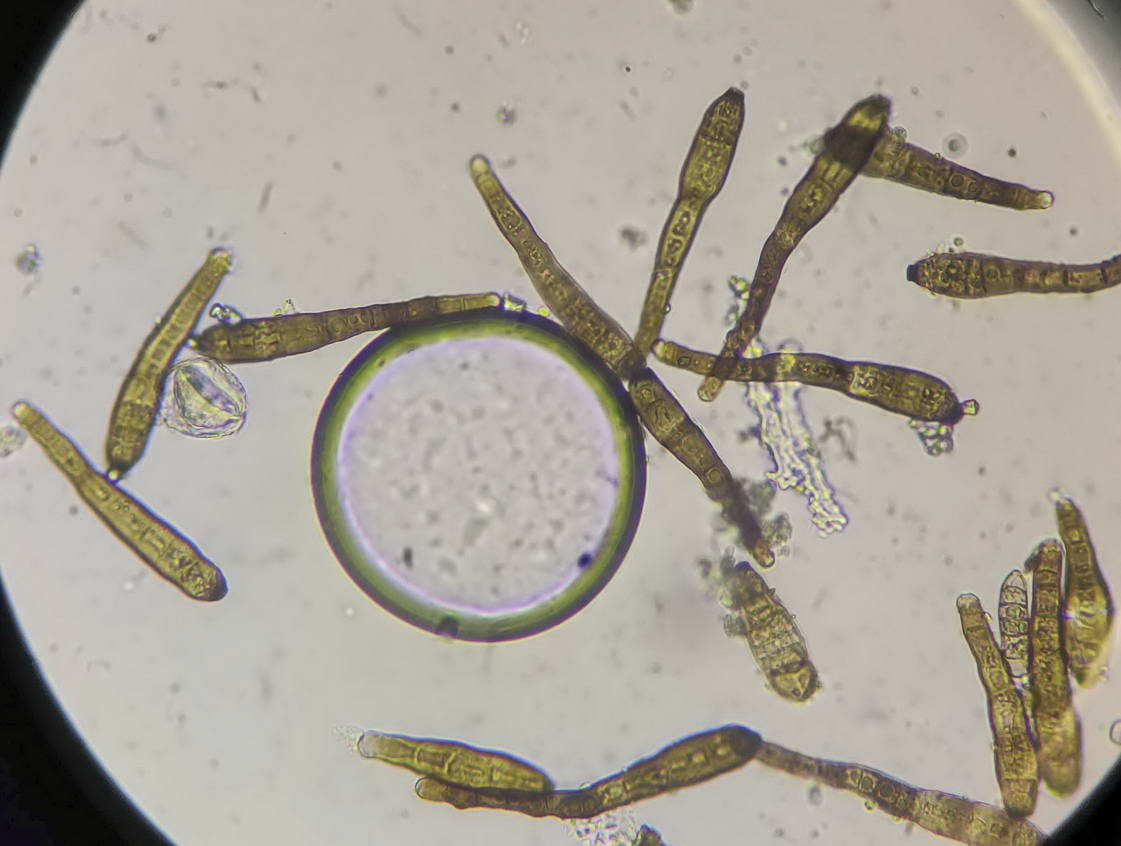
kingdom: Fungi
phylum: Ascomycota
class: Dothideomycetes
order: Pleosporales
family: Massarinaceae
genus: Exosporium
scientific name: Exosporium tiliae
